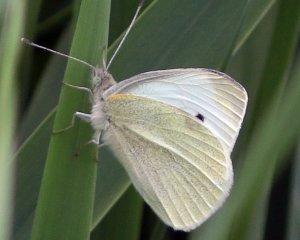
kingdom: Animalia
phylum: Arthropoda
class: Insecta
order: Lepidoptera
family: Pieridae
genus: Pieris
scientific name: Pieris rapae
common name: Cabbage White
